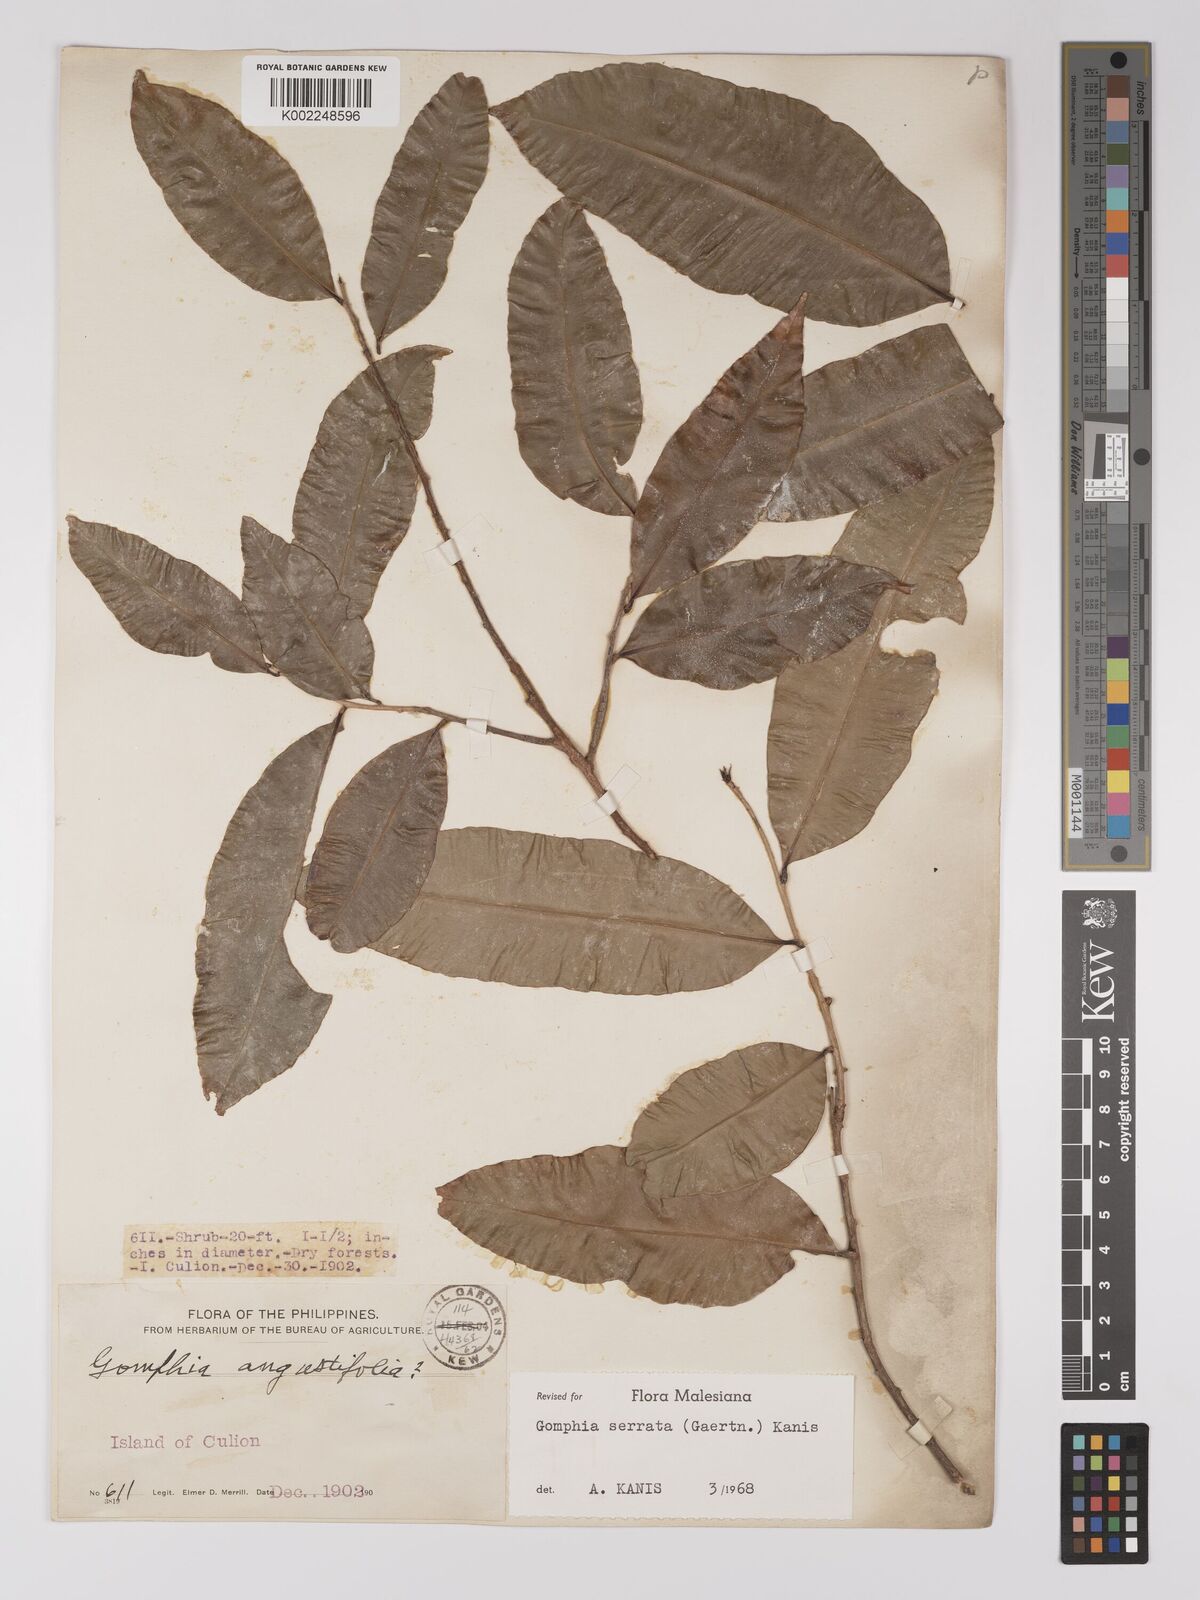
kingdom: Plantae
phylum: Tracheophyta
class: Magnoliopsida
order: Malpighiales
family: Ochnaceae
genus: Gomphia
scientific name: Gomphia serrata
